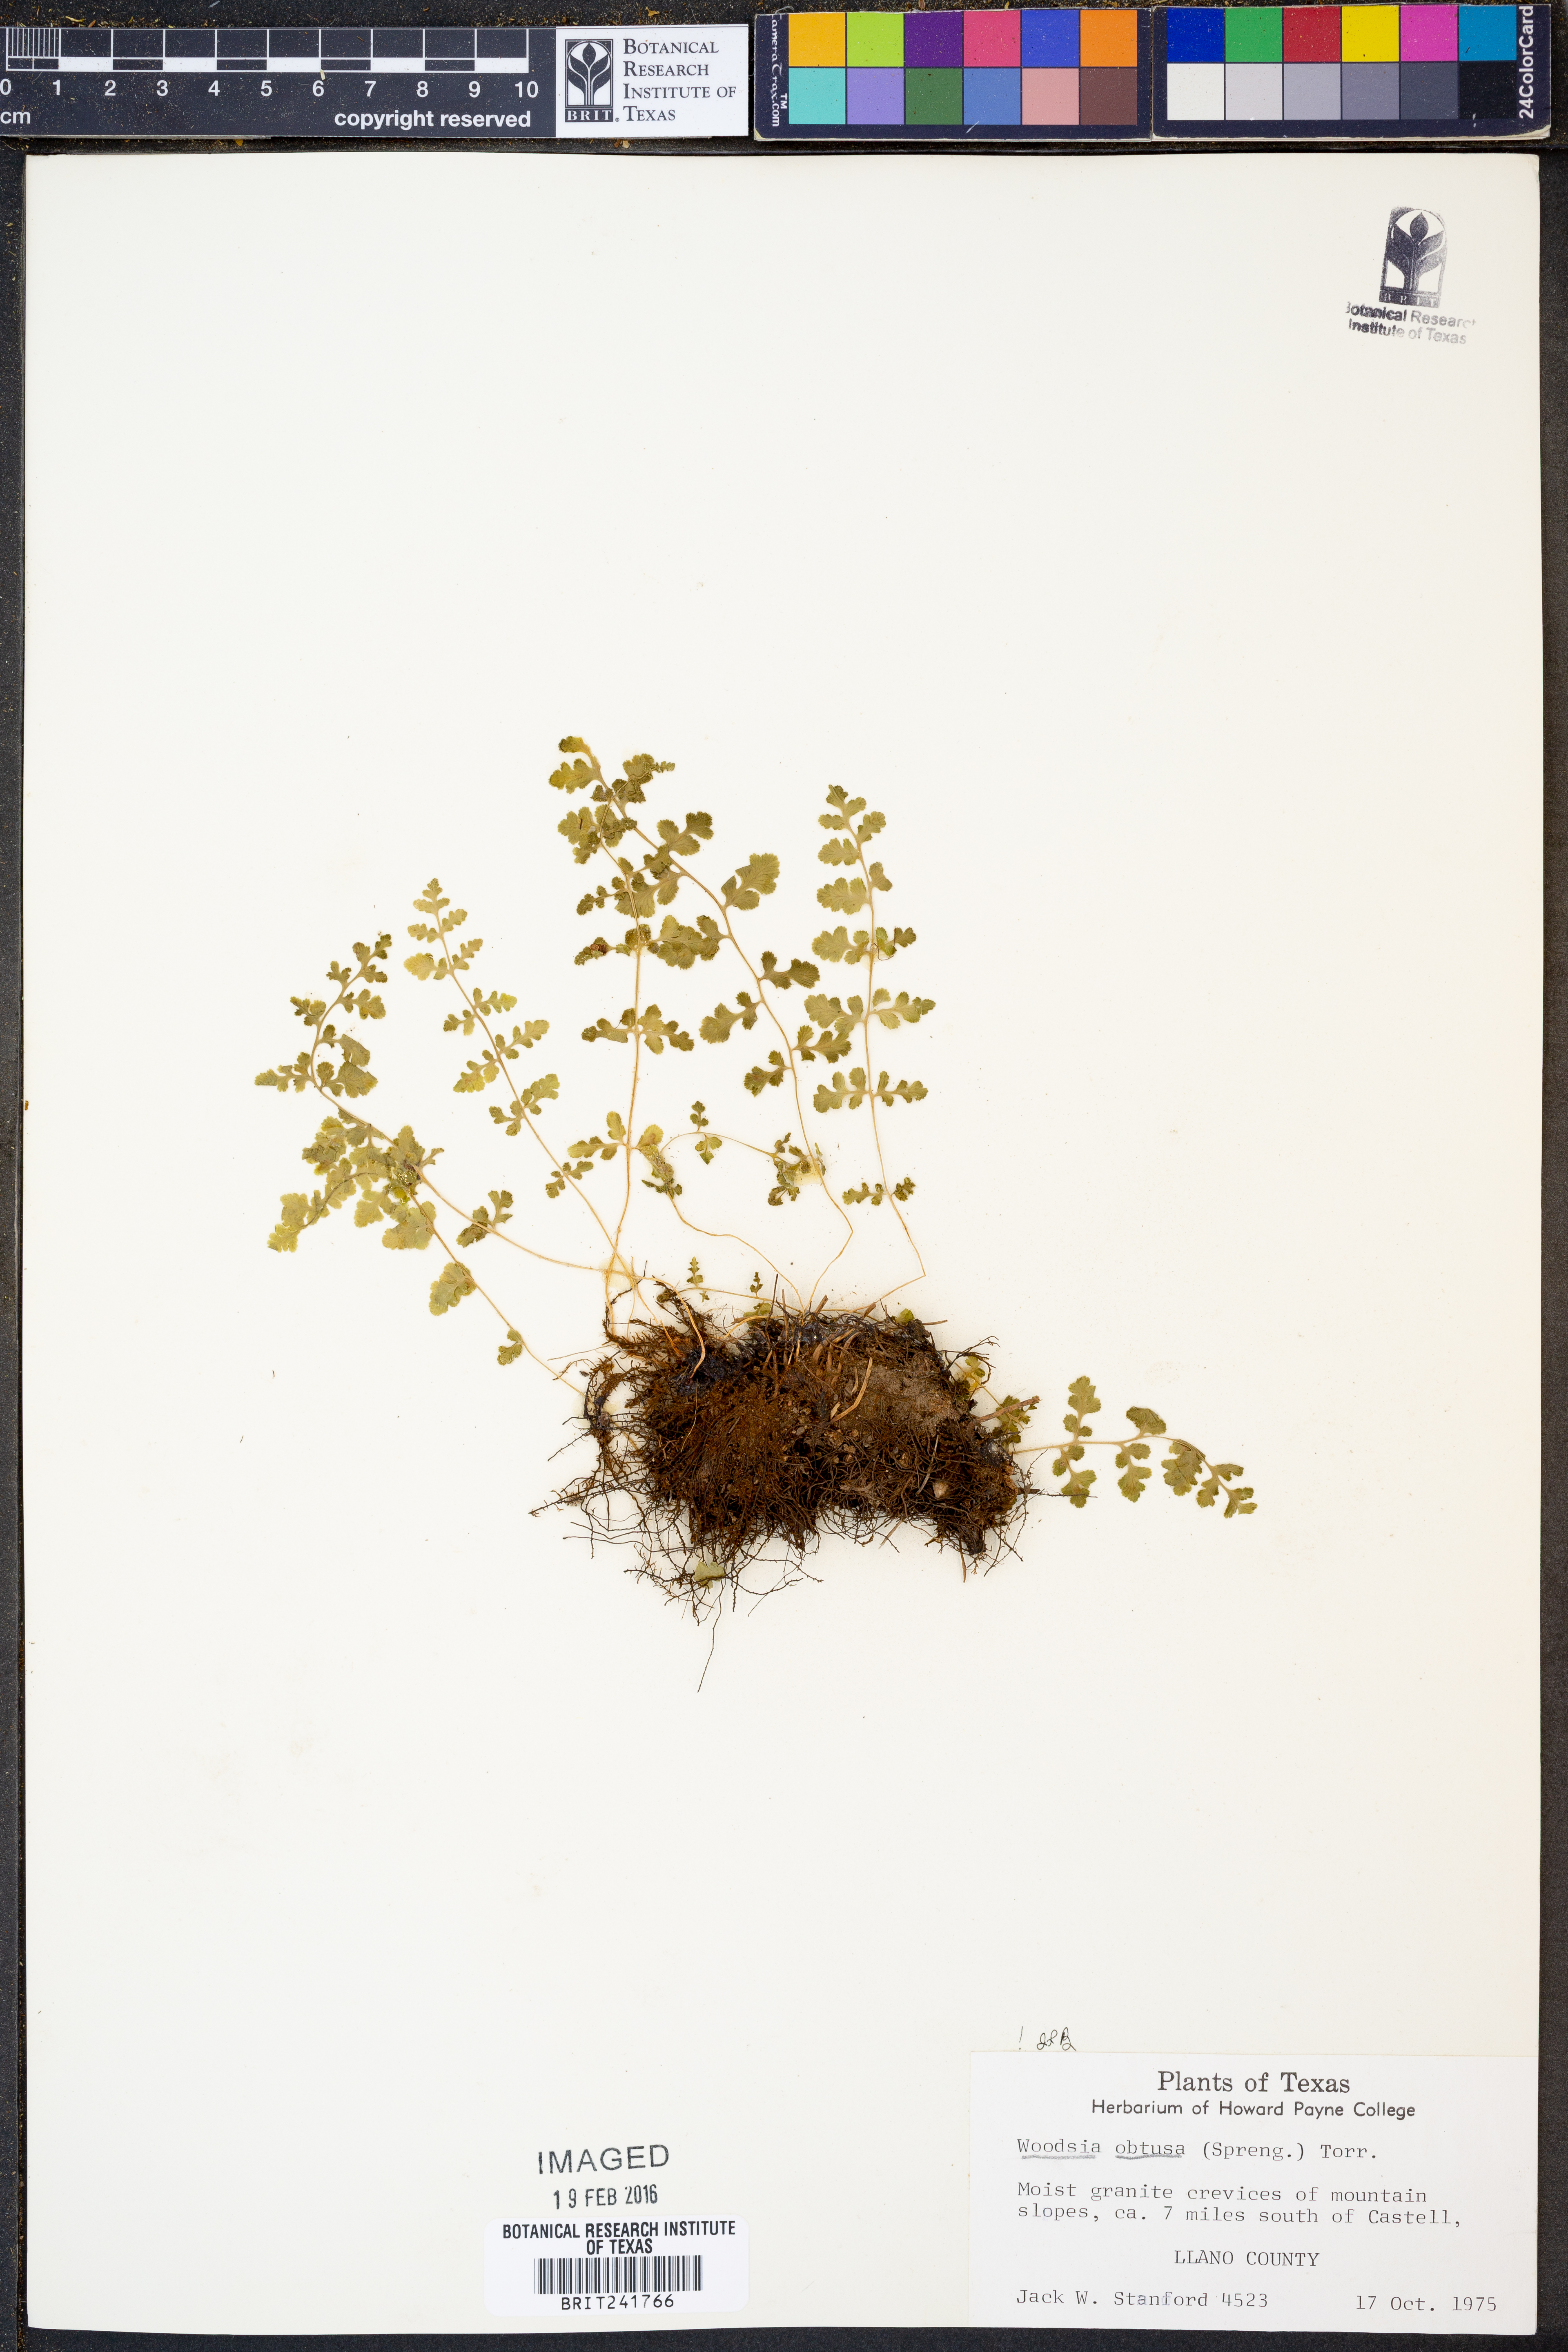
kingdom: Plantae
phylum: Tracheophyta
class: Polypodiopsida
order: Polypodiales
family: Woodsiaceae
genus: Physematium
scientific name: Physematium obtusum
